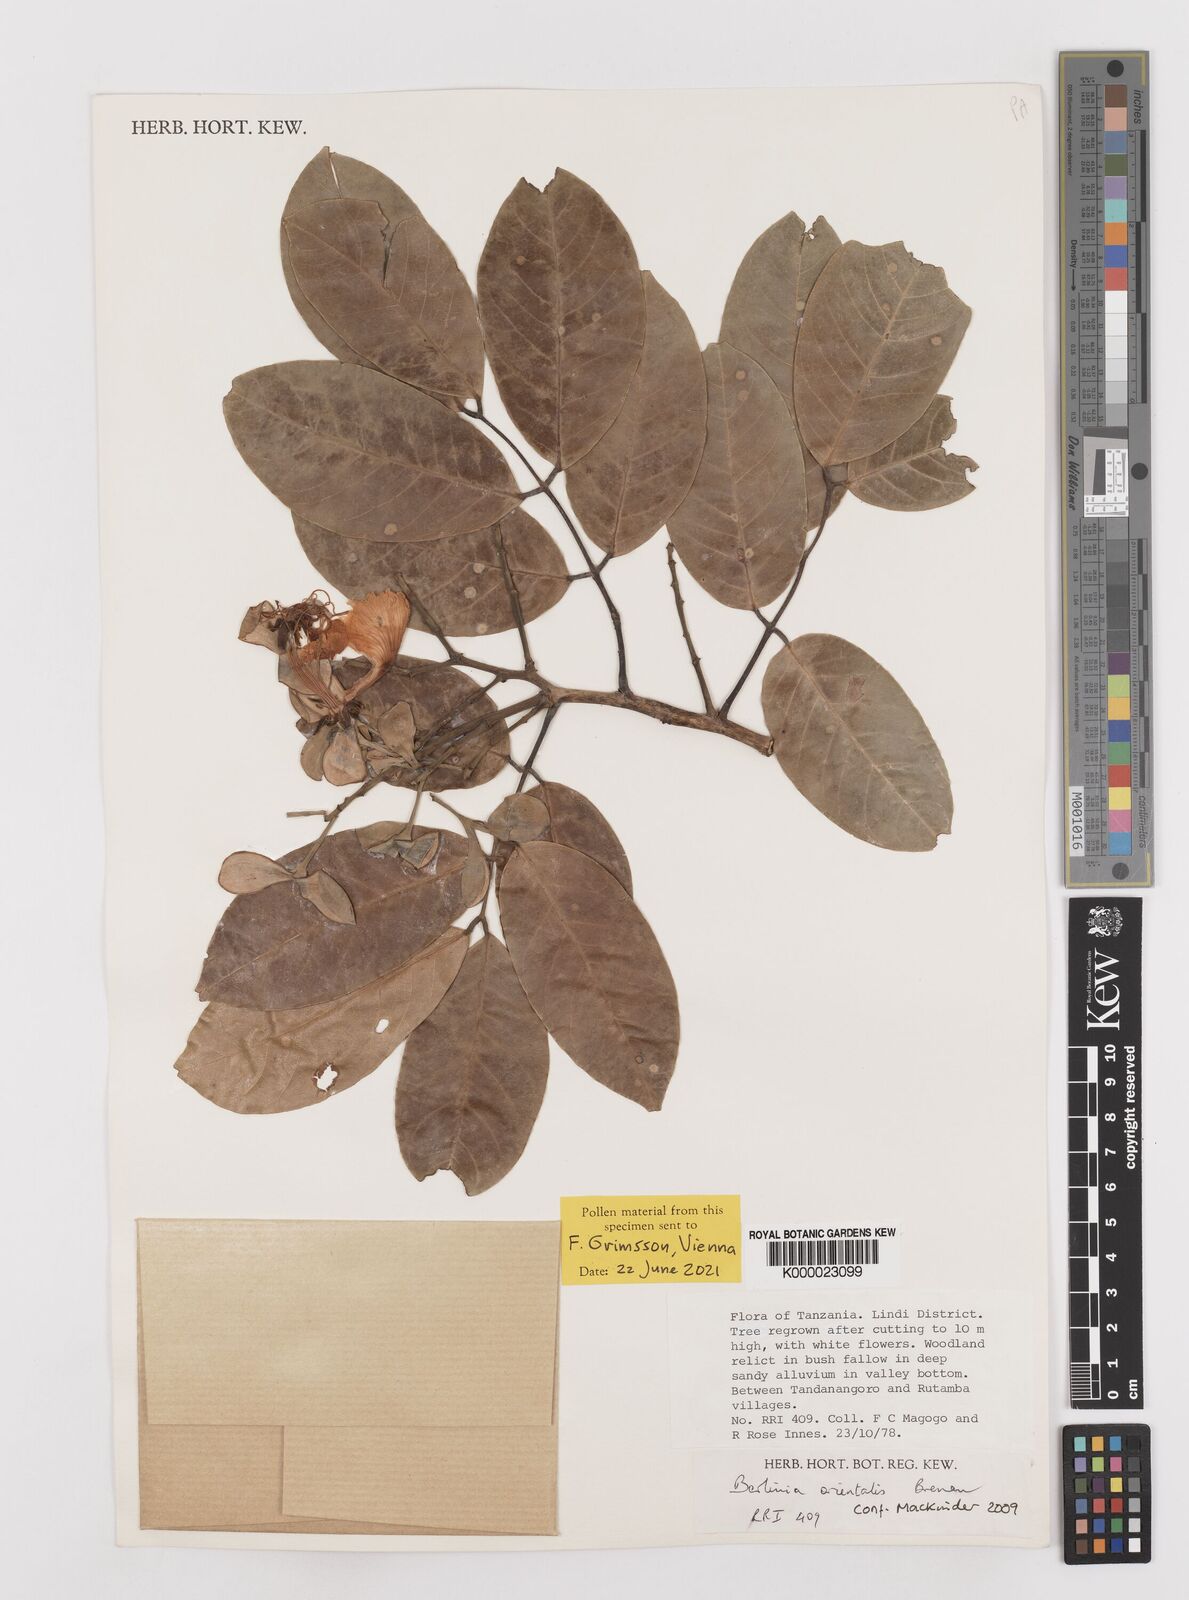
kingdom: Plantae
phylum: Tracheophyta
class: Magnoliopsida
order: Fabales
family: Fabaceae
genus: Berlinia
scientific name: Berlinia orientalis
